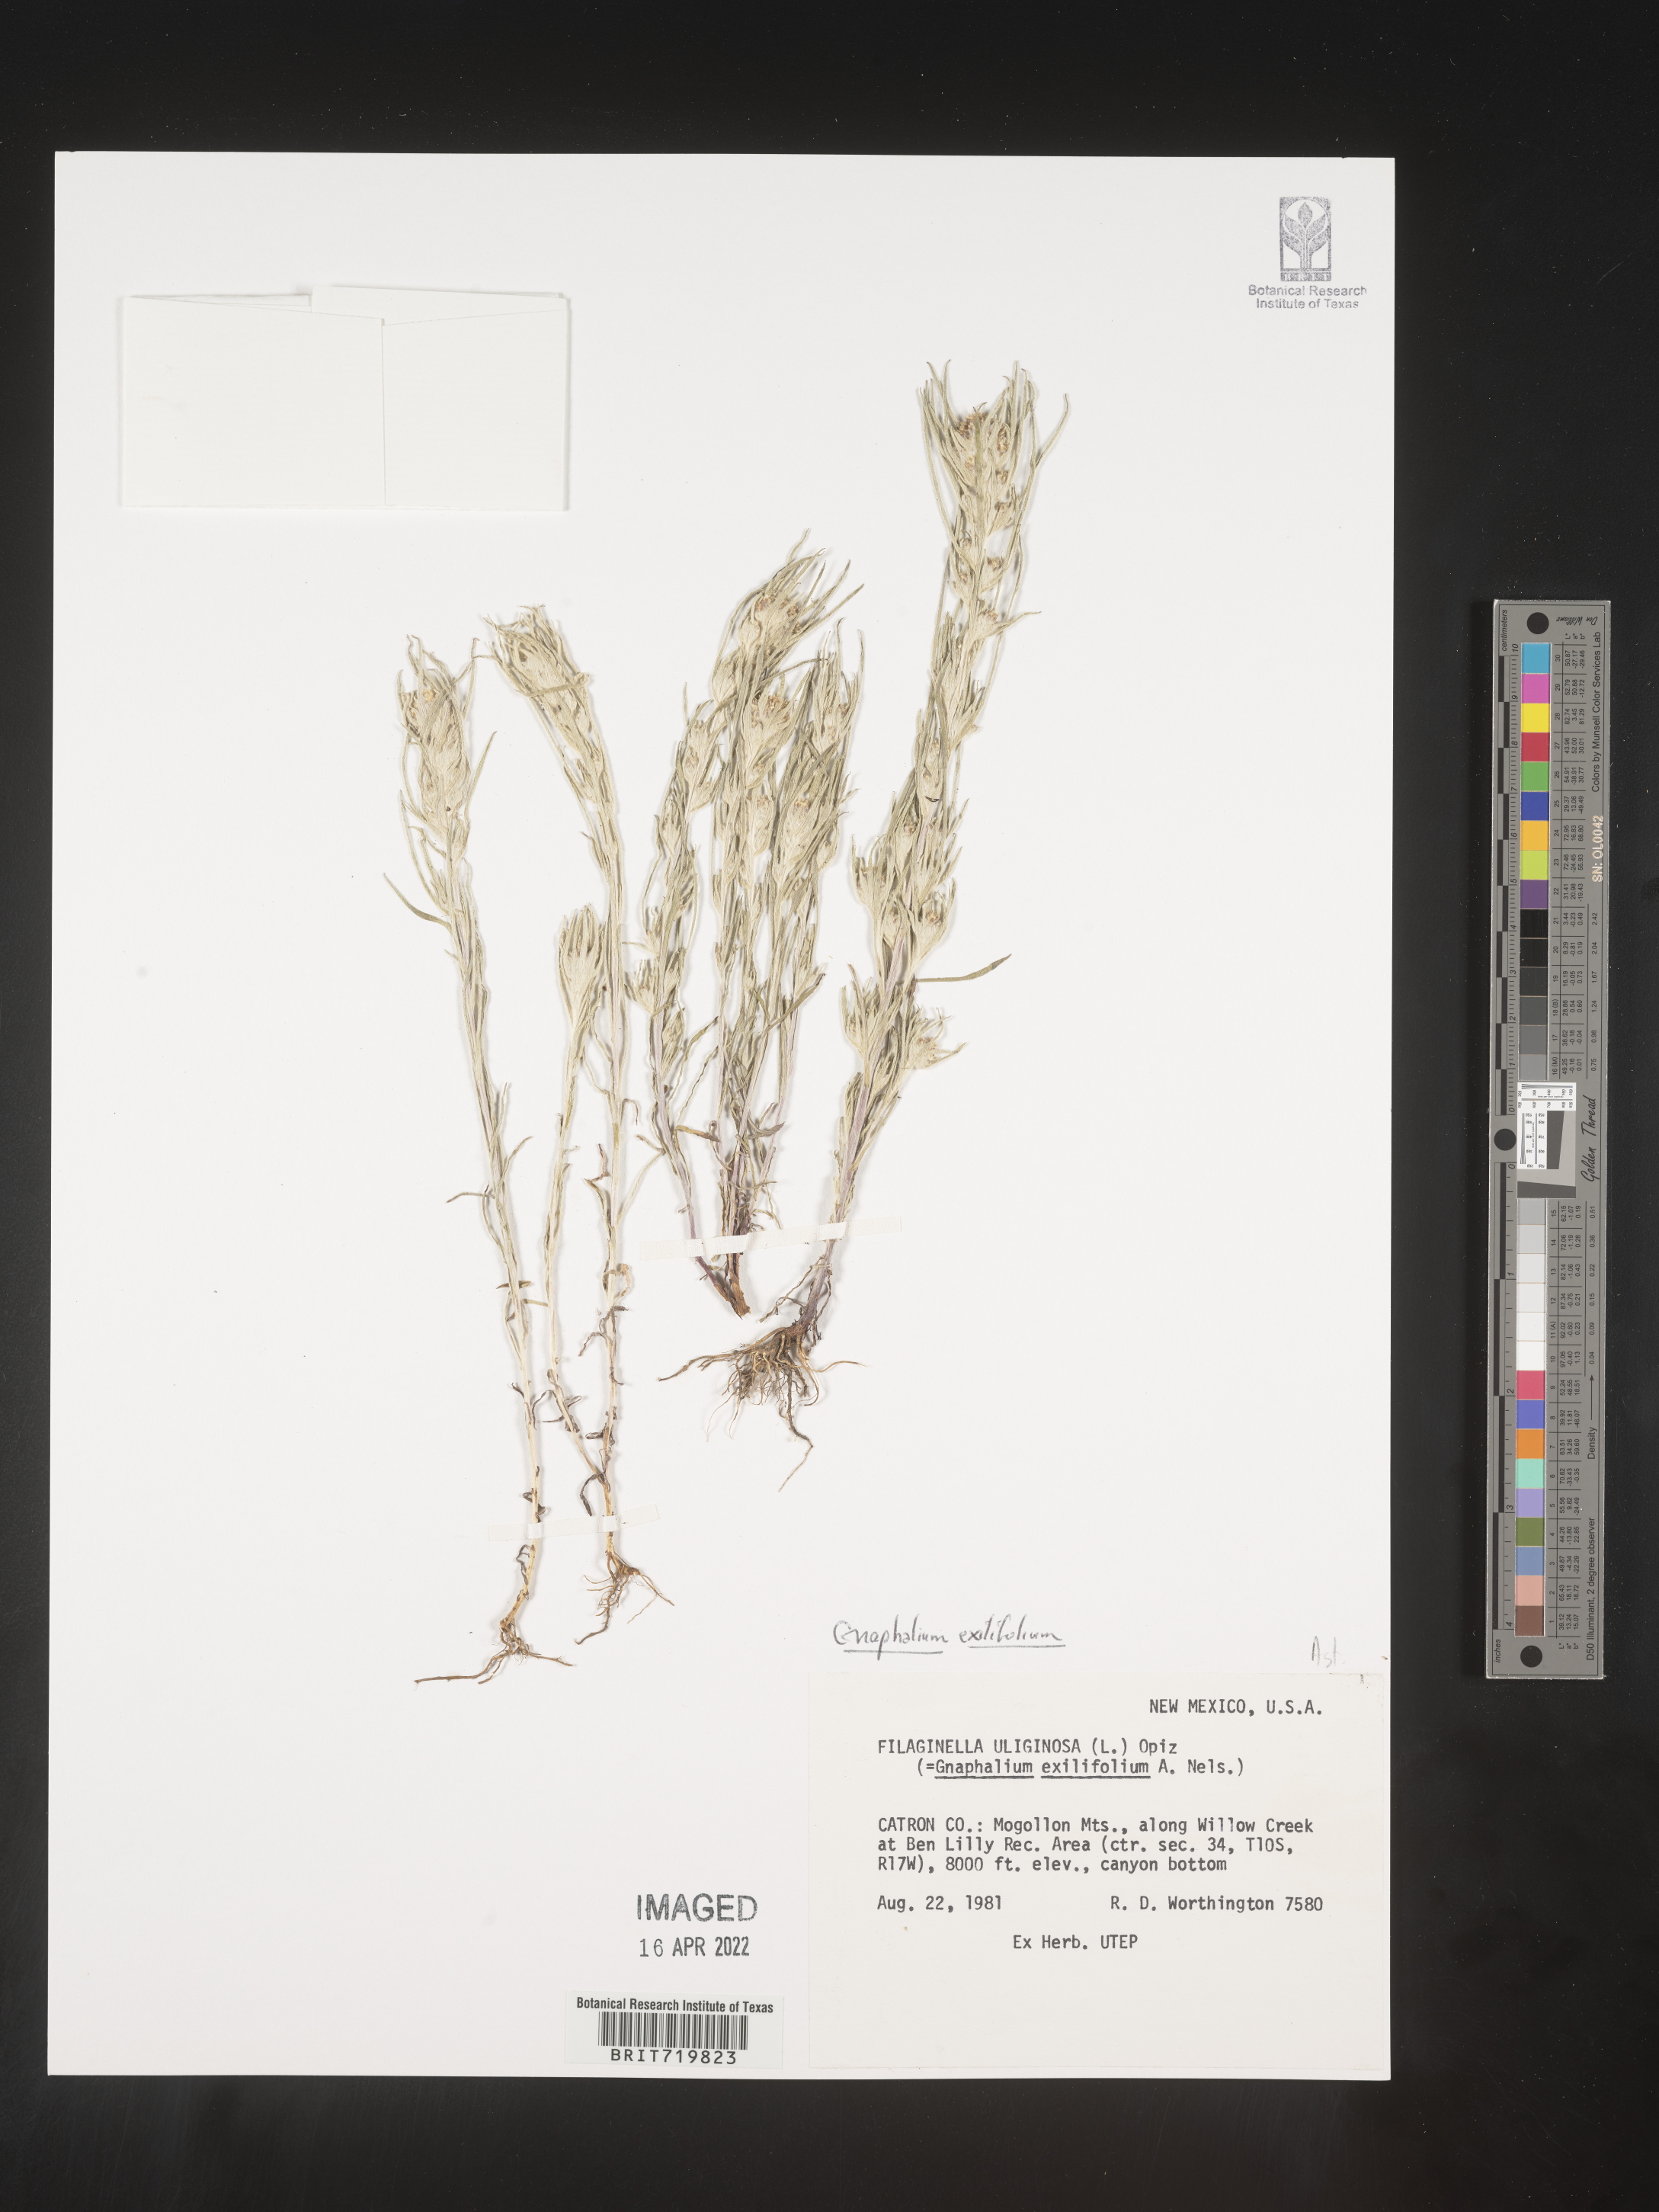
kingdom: Plantae
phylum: Tracheophyta
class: Magnoliopsida
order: Asterales
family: Asteraceae
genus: Gnaphalium
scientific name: Gnaphalium
